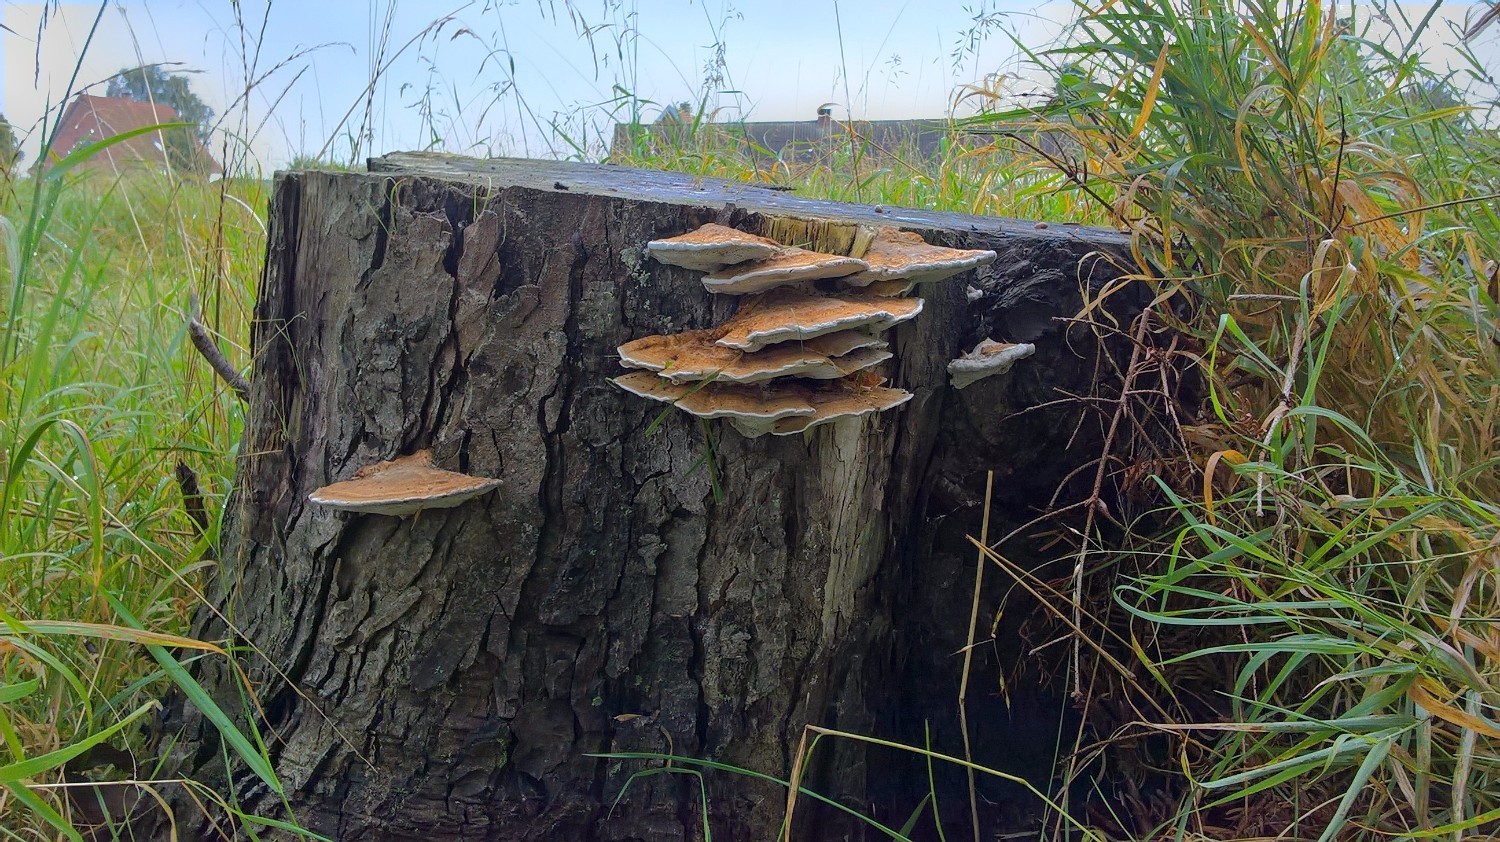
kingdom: Fungi
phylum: Basidiomycota
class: Agaricomycetes
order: Polyporales
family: Polyporaceae
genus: Daedaleopsis
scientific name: Daedaleopsis confragosa
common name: rødmende læderporesvamp
